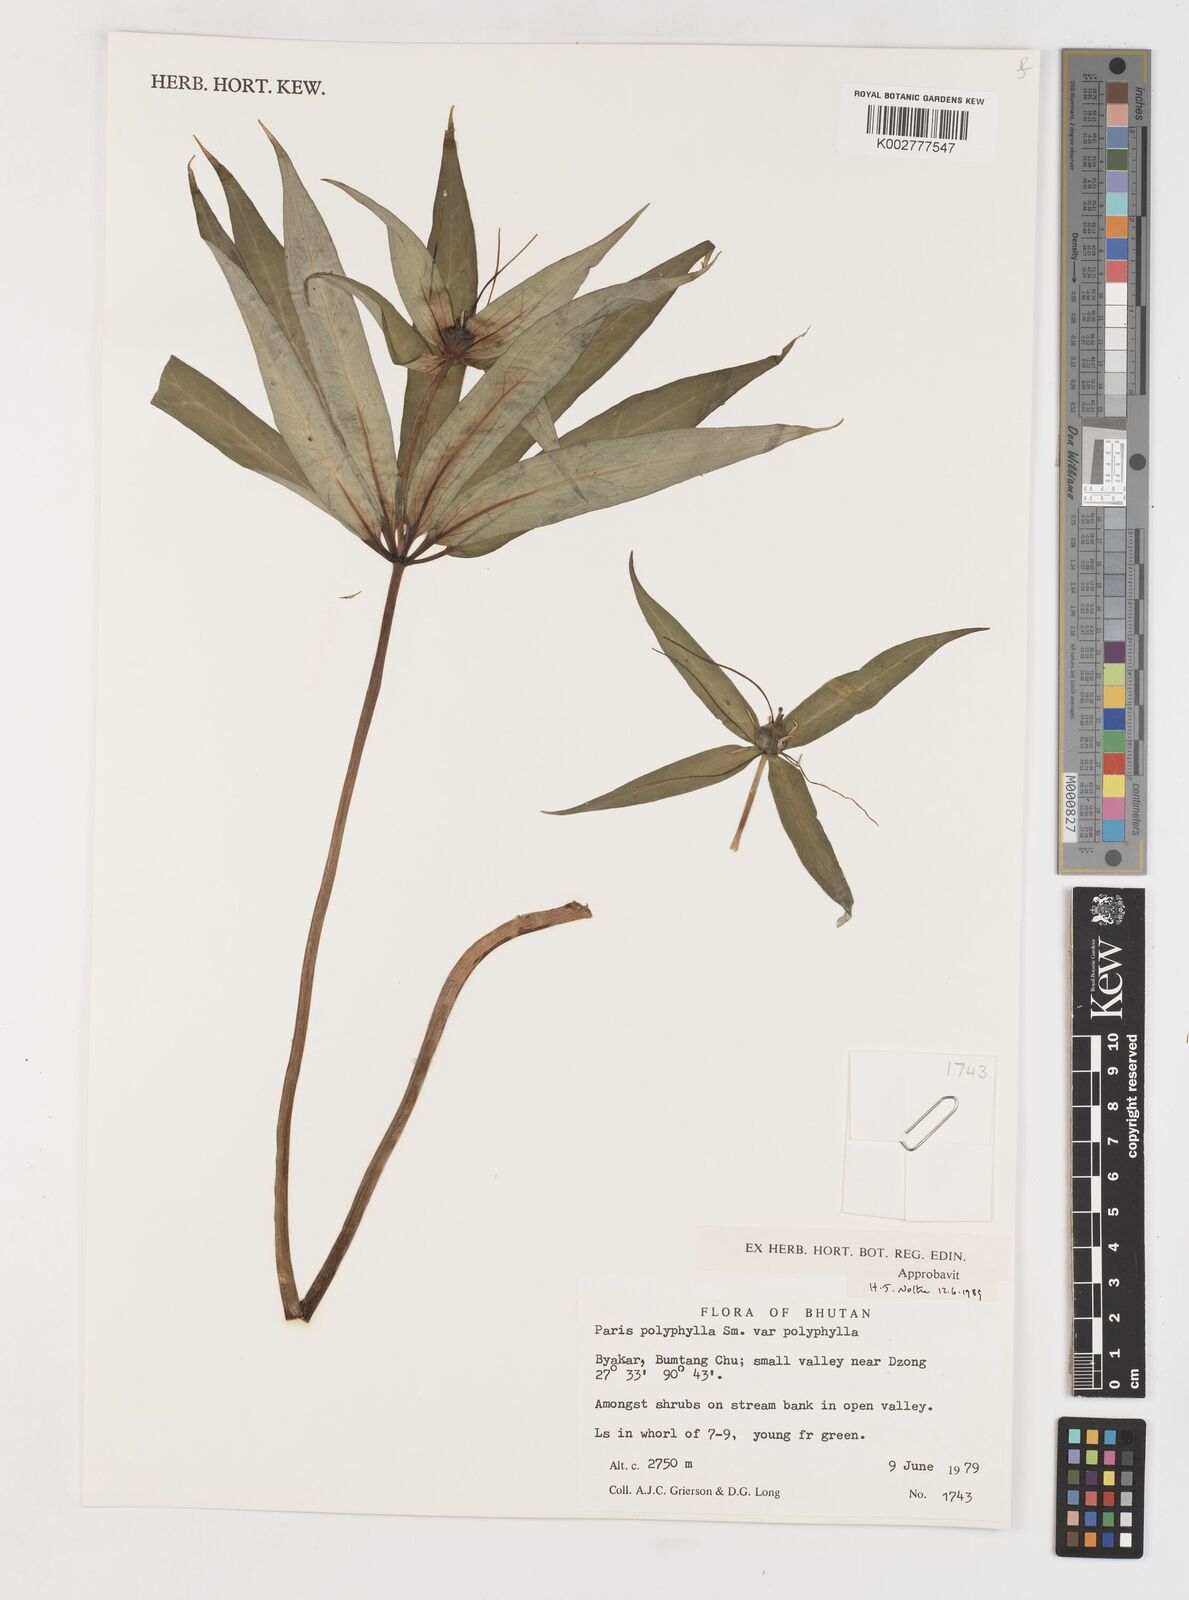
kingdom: Plantae
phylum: Tracheophyta
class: Liliopsida
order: Liliales
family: Melanthiaceae
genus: Paris
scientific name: Paris polyphylla
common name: Love apple
